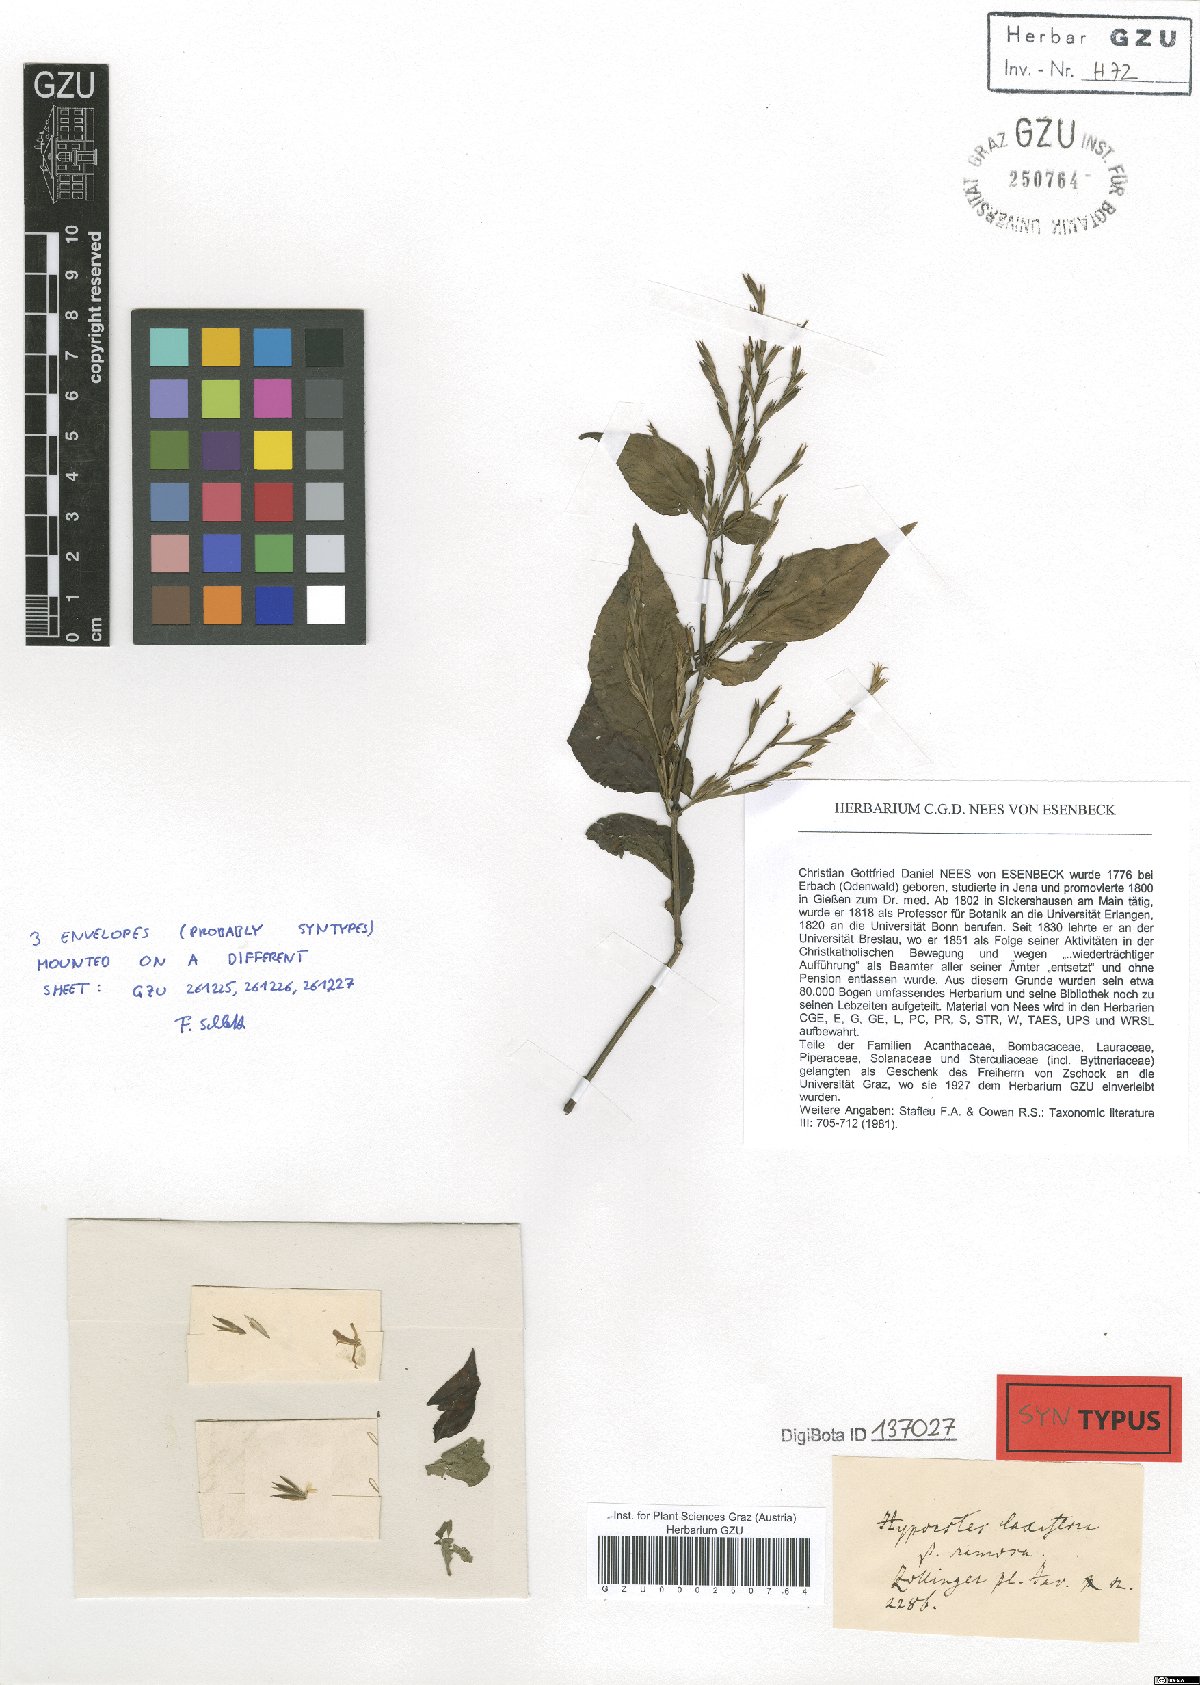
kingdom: Plantae
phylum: Tracheophyta
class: Magnoliopsida
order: Lamiales
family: Acanthaceae
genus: Hypoestes
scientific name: Hypoestes malaccensis
